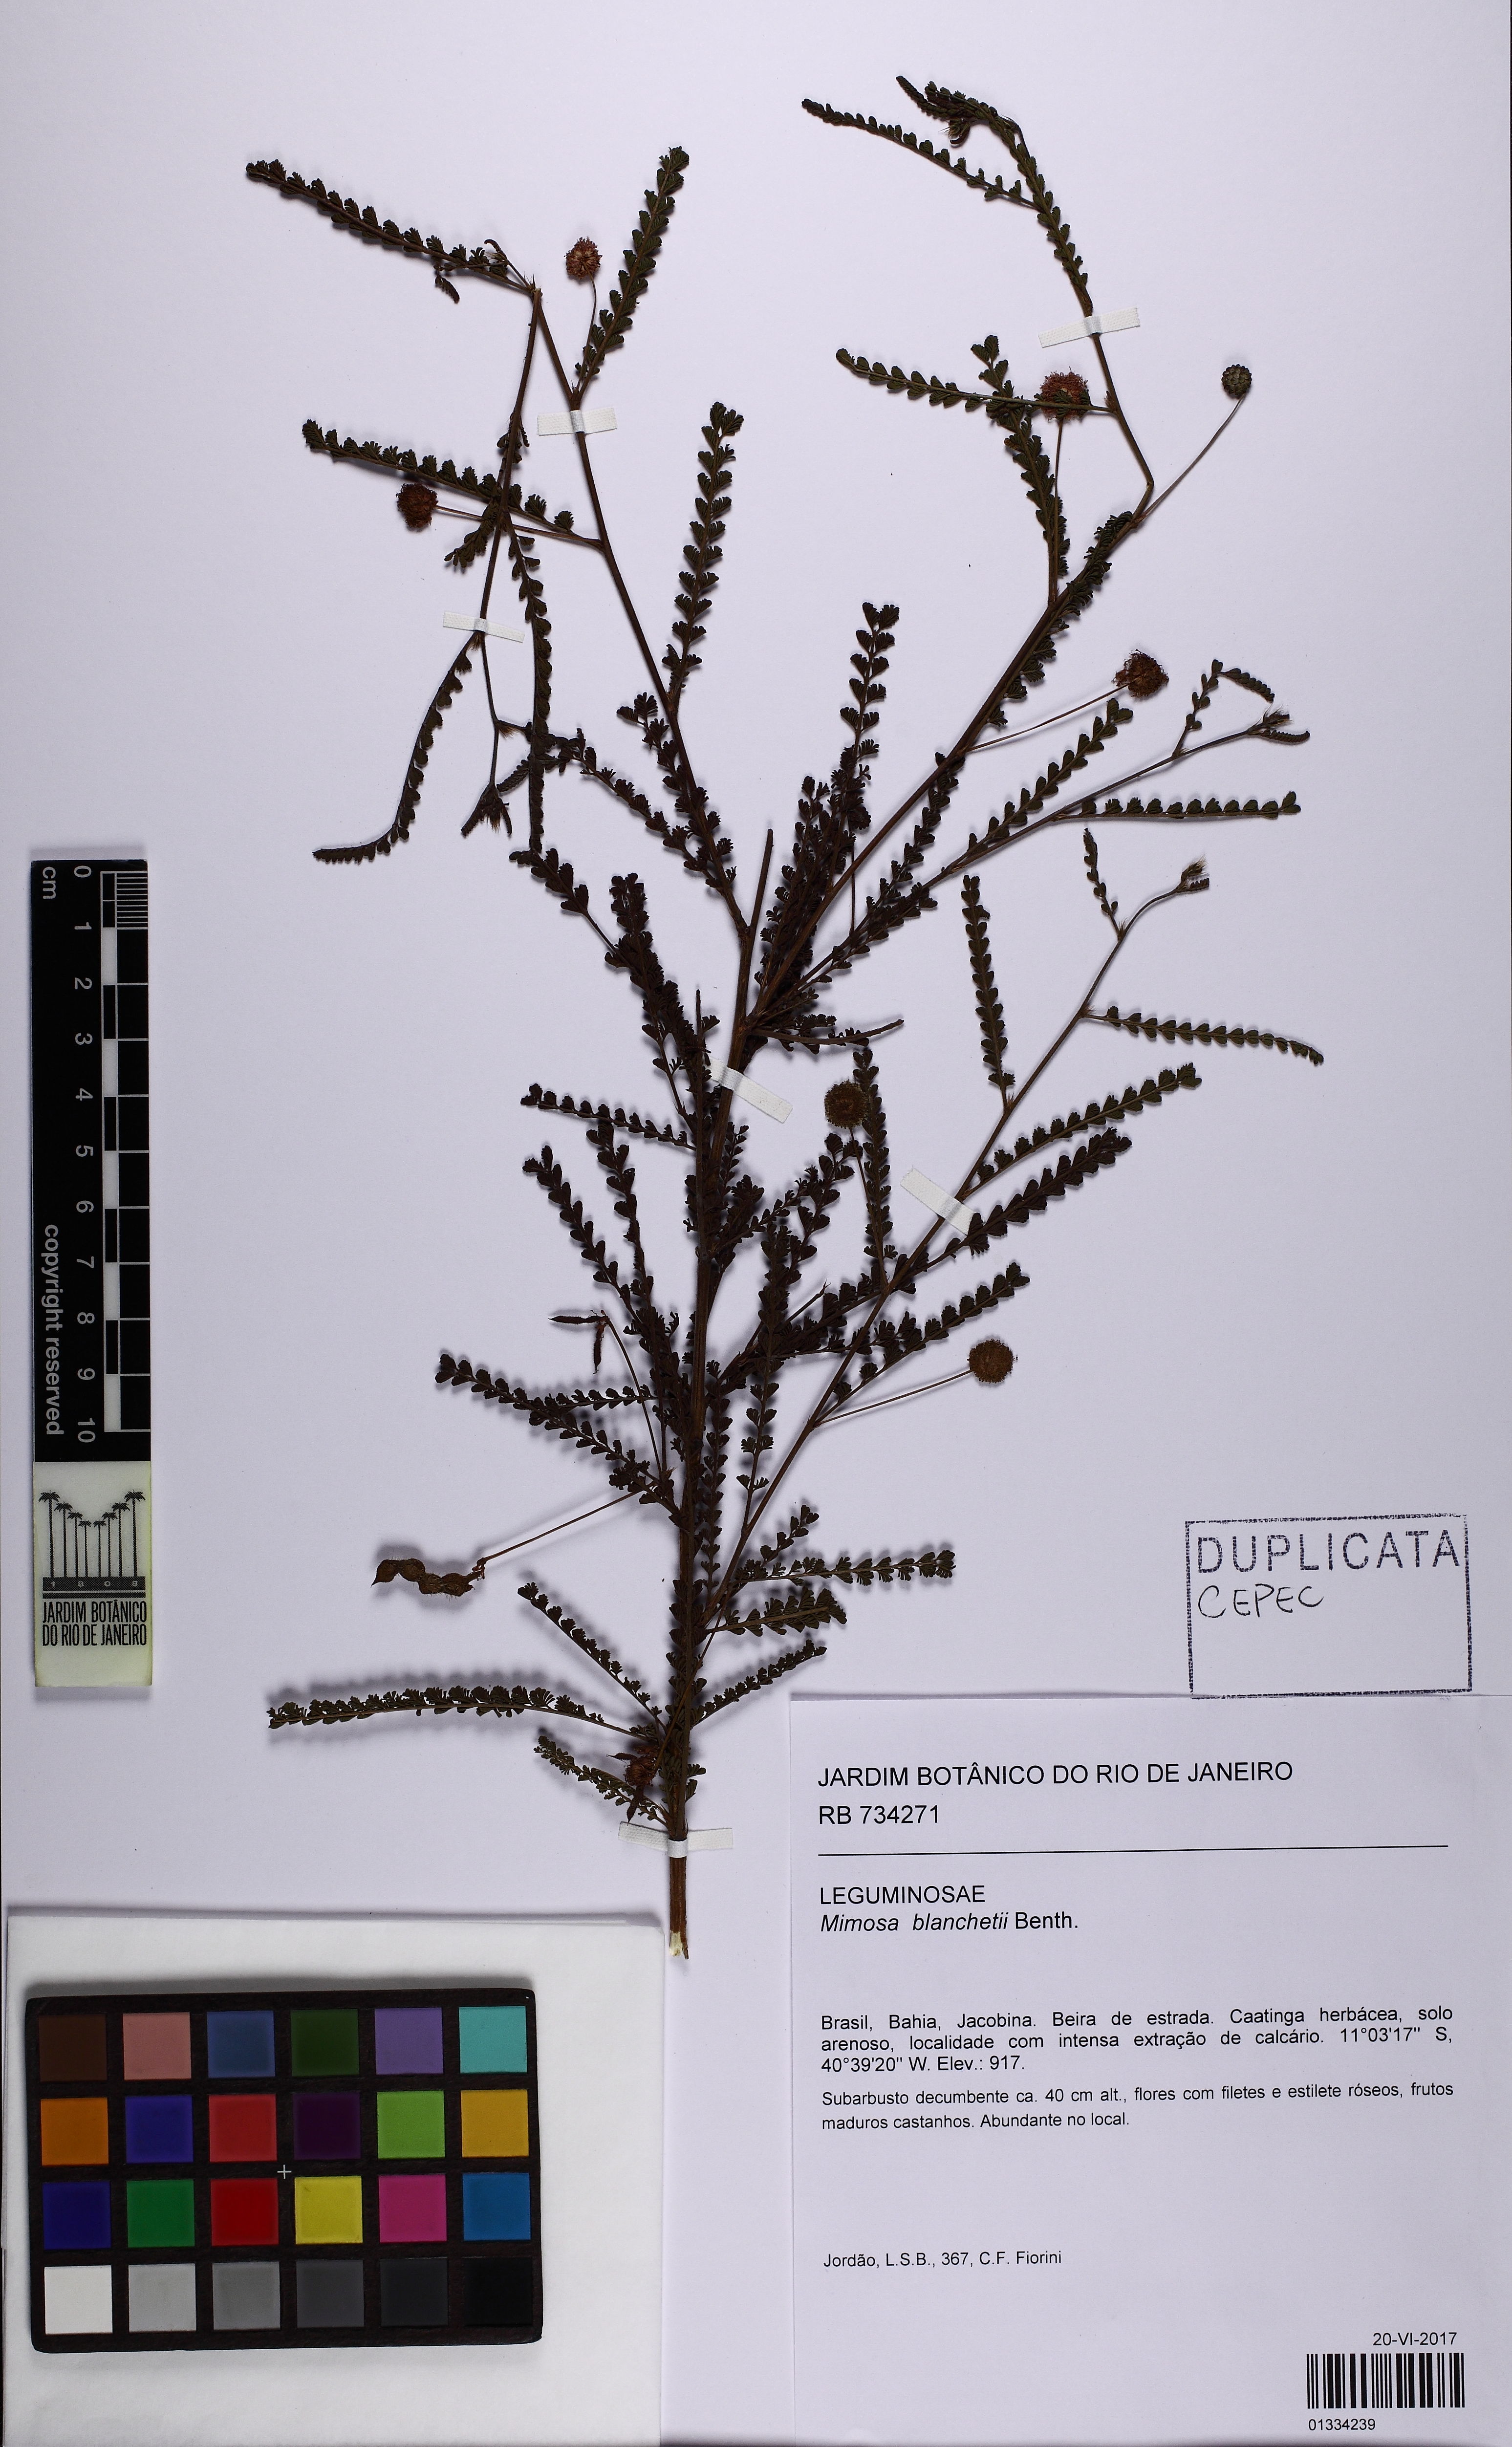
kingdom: Plantae
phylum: Tracheophyta
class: Magnoliopsida
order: Fabales
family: Fabaceae
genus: Mimosa
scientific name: Mimosa blanchetii
